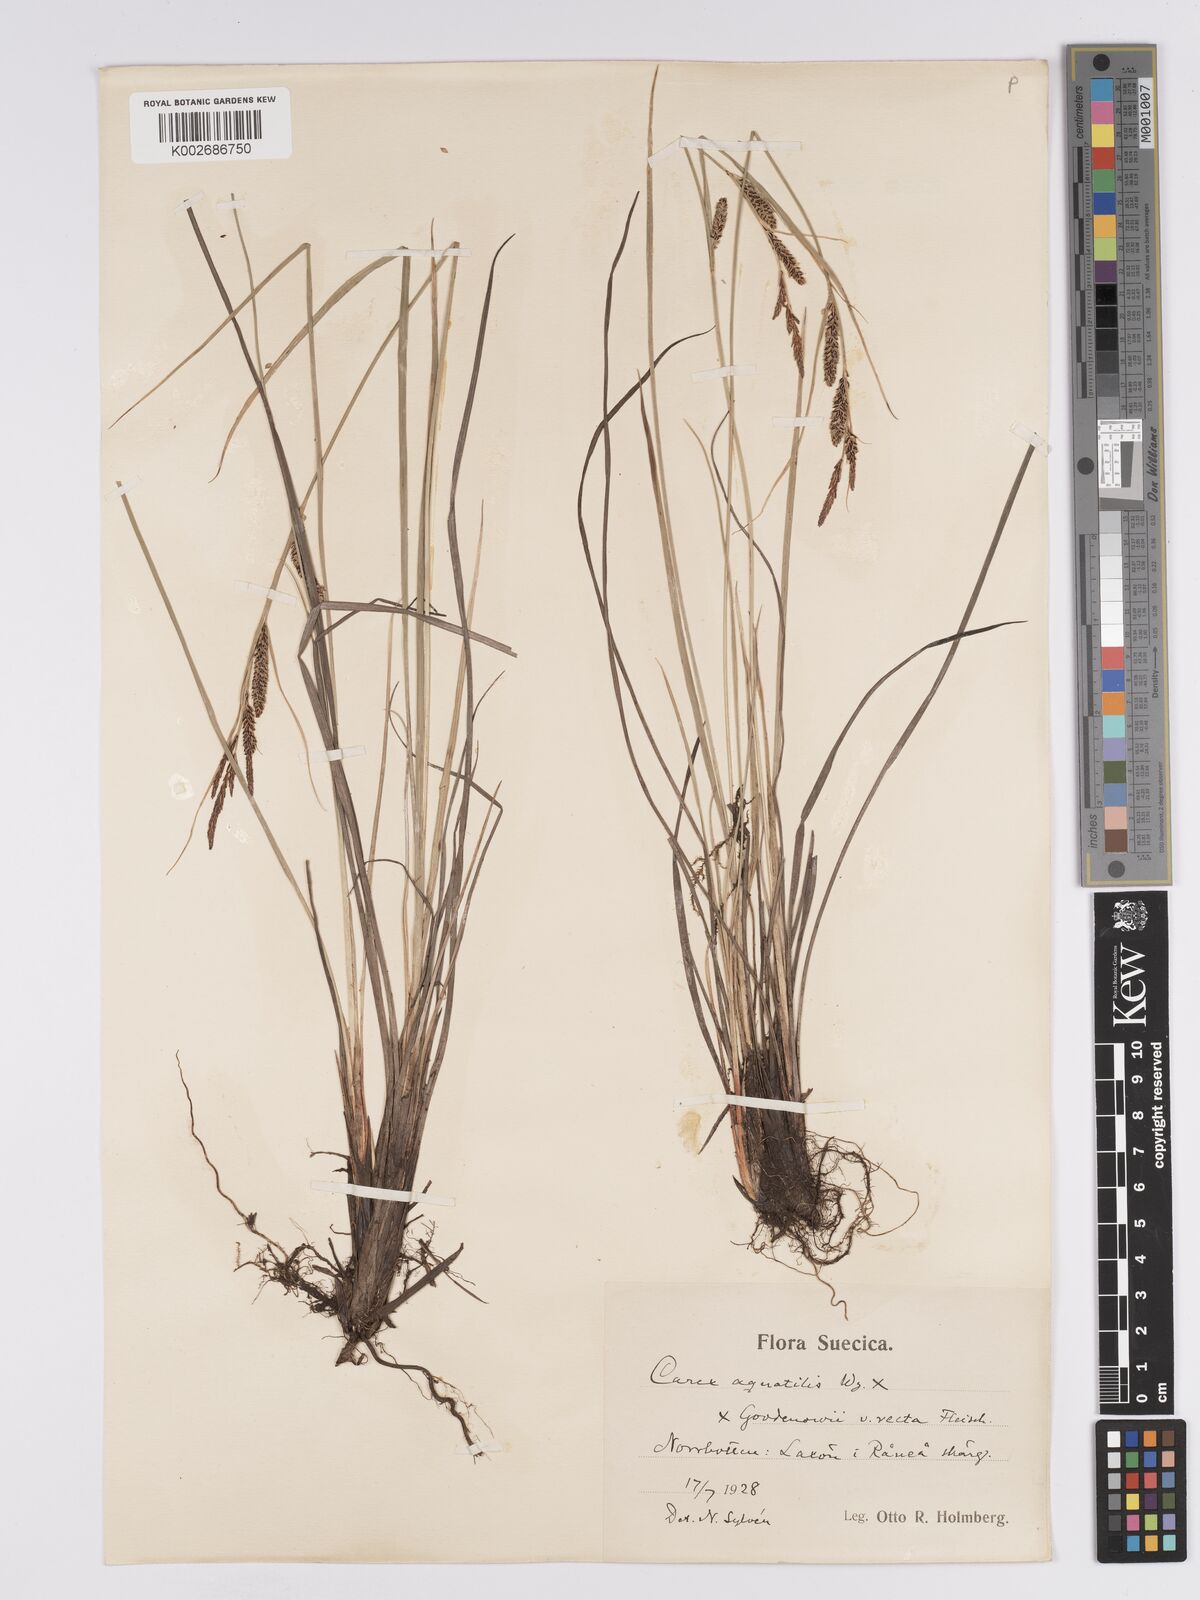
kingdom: Plantae
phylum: Tracheophyta
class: Liliopsida
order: Poales
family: Cyperaceae
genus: Carex
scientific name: Carex aquatilis
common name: Water sedge
